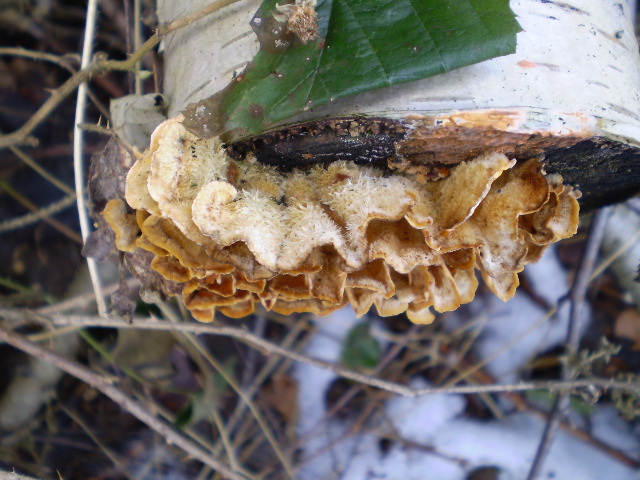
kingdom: Fungi
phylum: Basidiomycota
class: Agaricomycetes
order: Russulales
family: Stereaceae
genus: Stereum
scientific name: Stereum hirsutum
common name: håret lædersvamp
